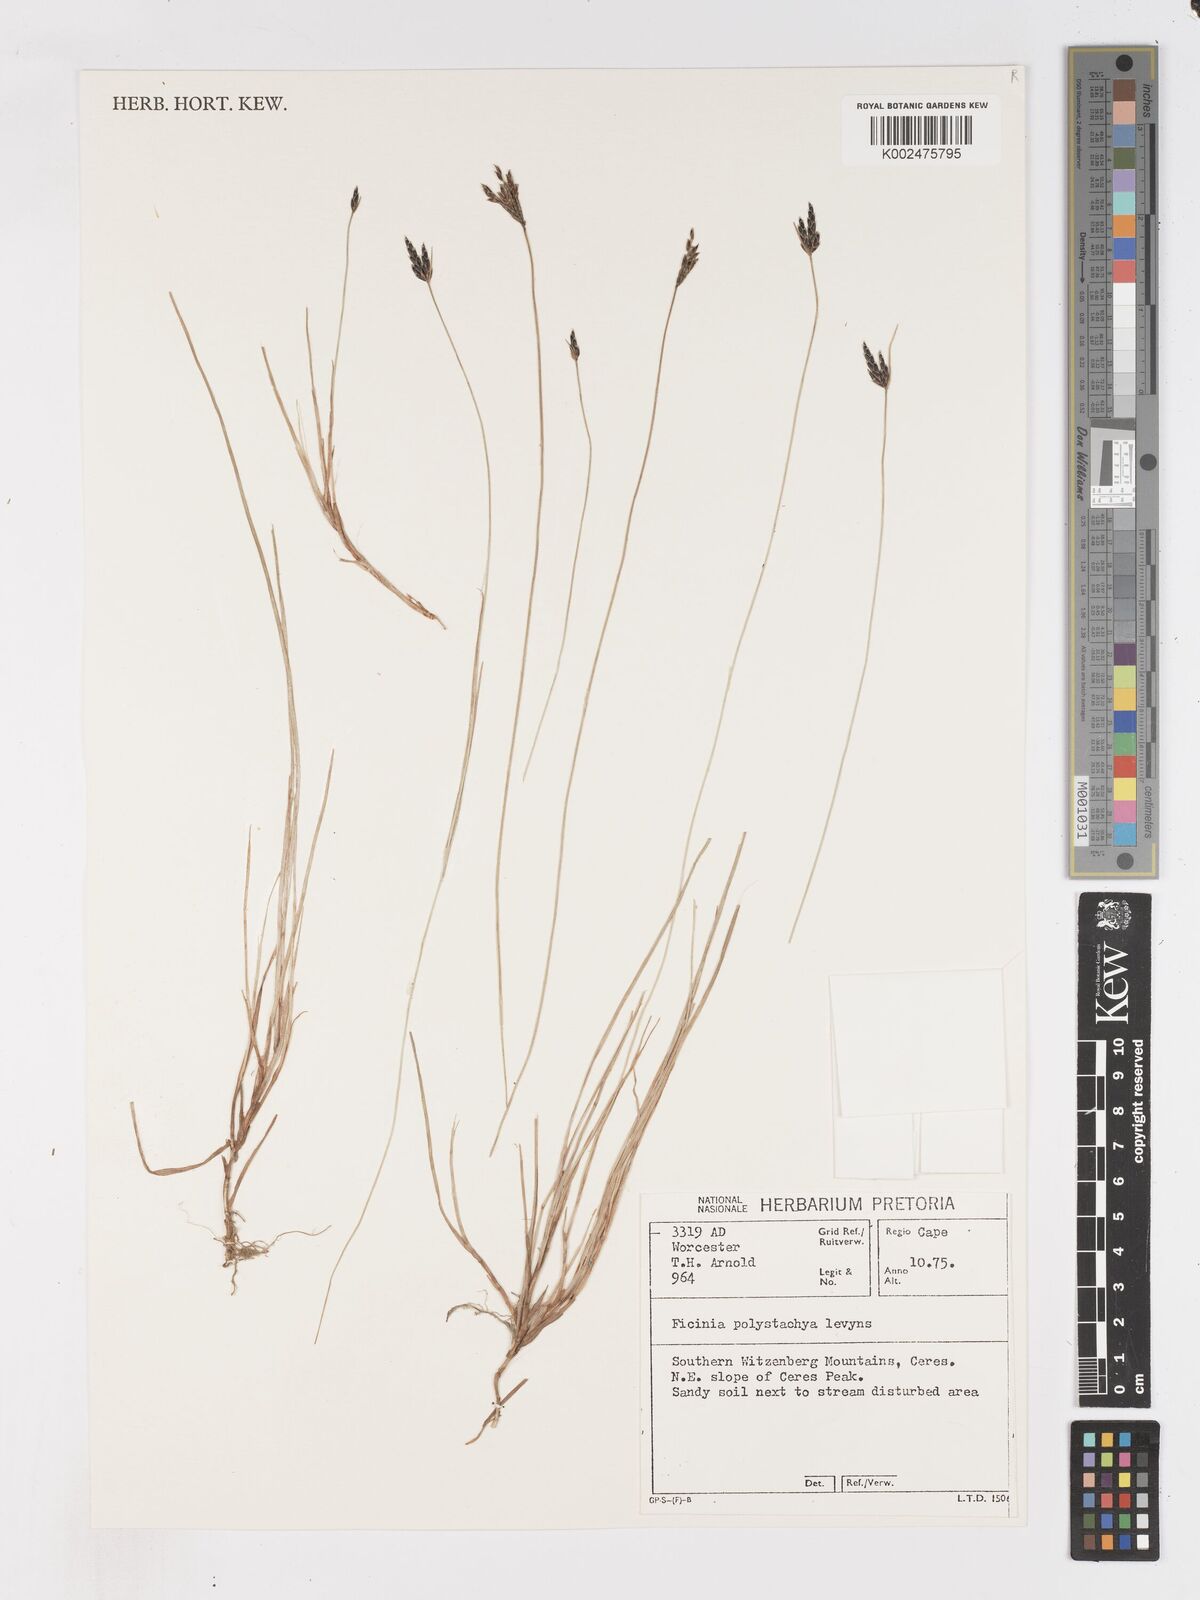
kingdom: Plantae
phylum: Tracheophyta
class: Liliopsida
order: Poales
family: Cyperaceae
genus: Ficinia
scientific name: Ficinia angustifolia
